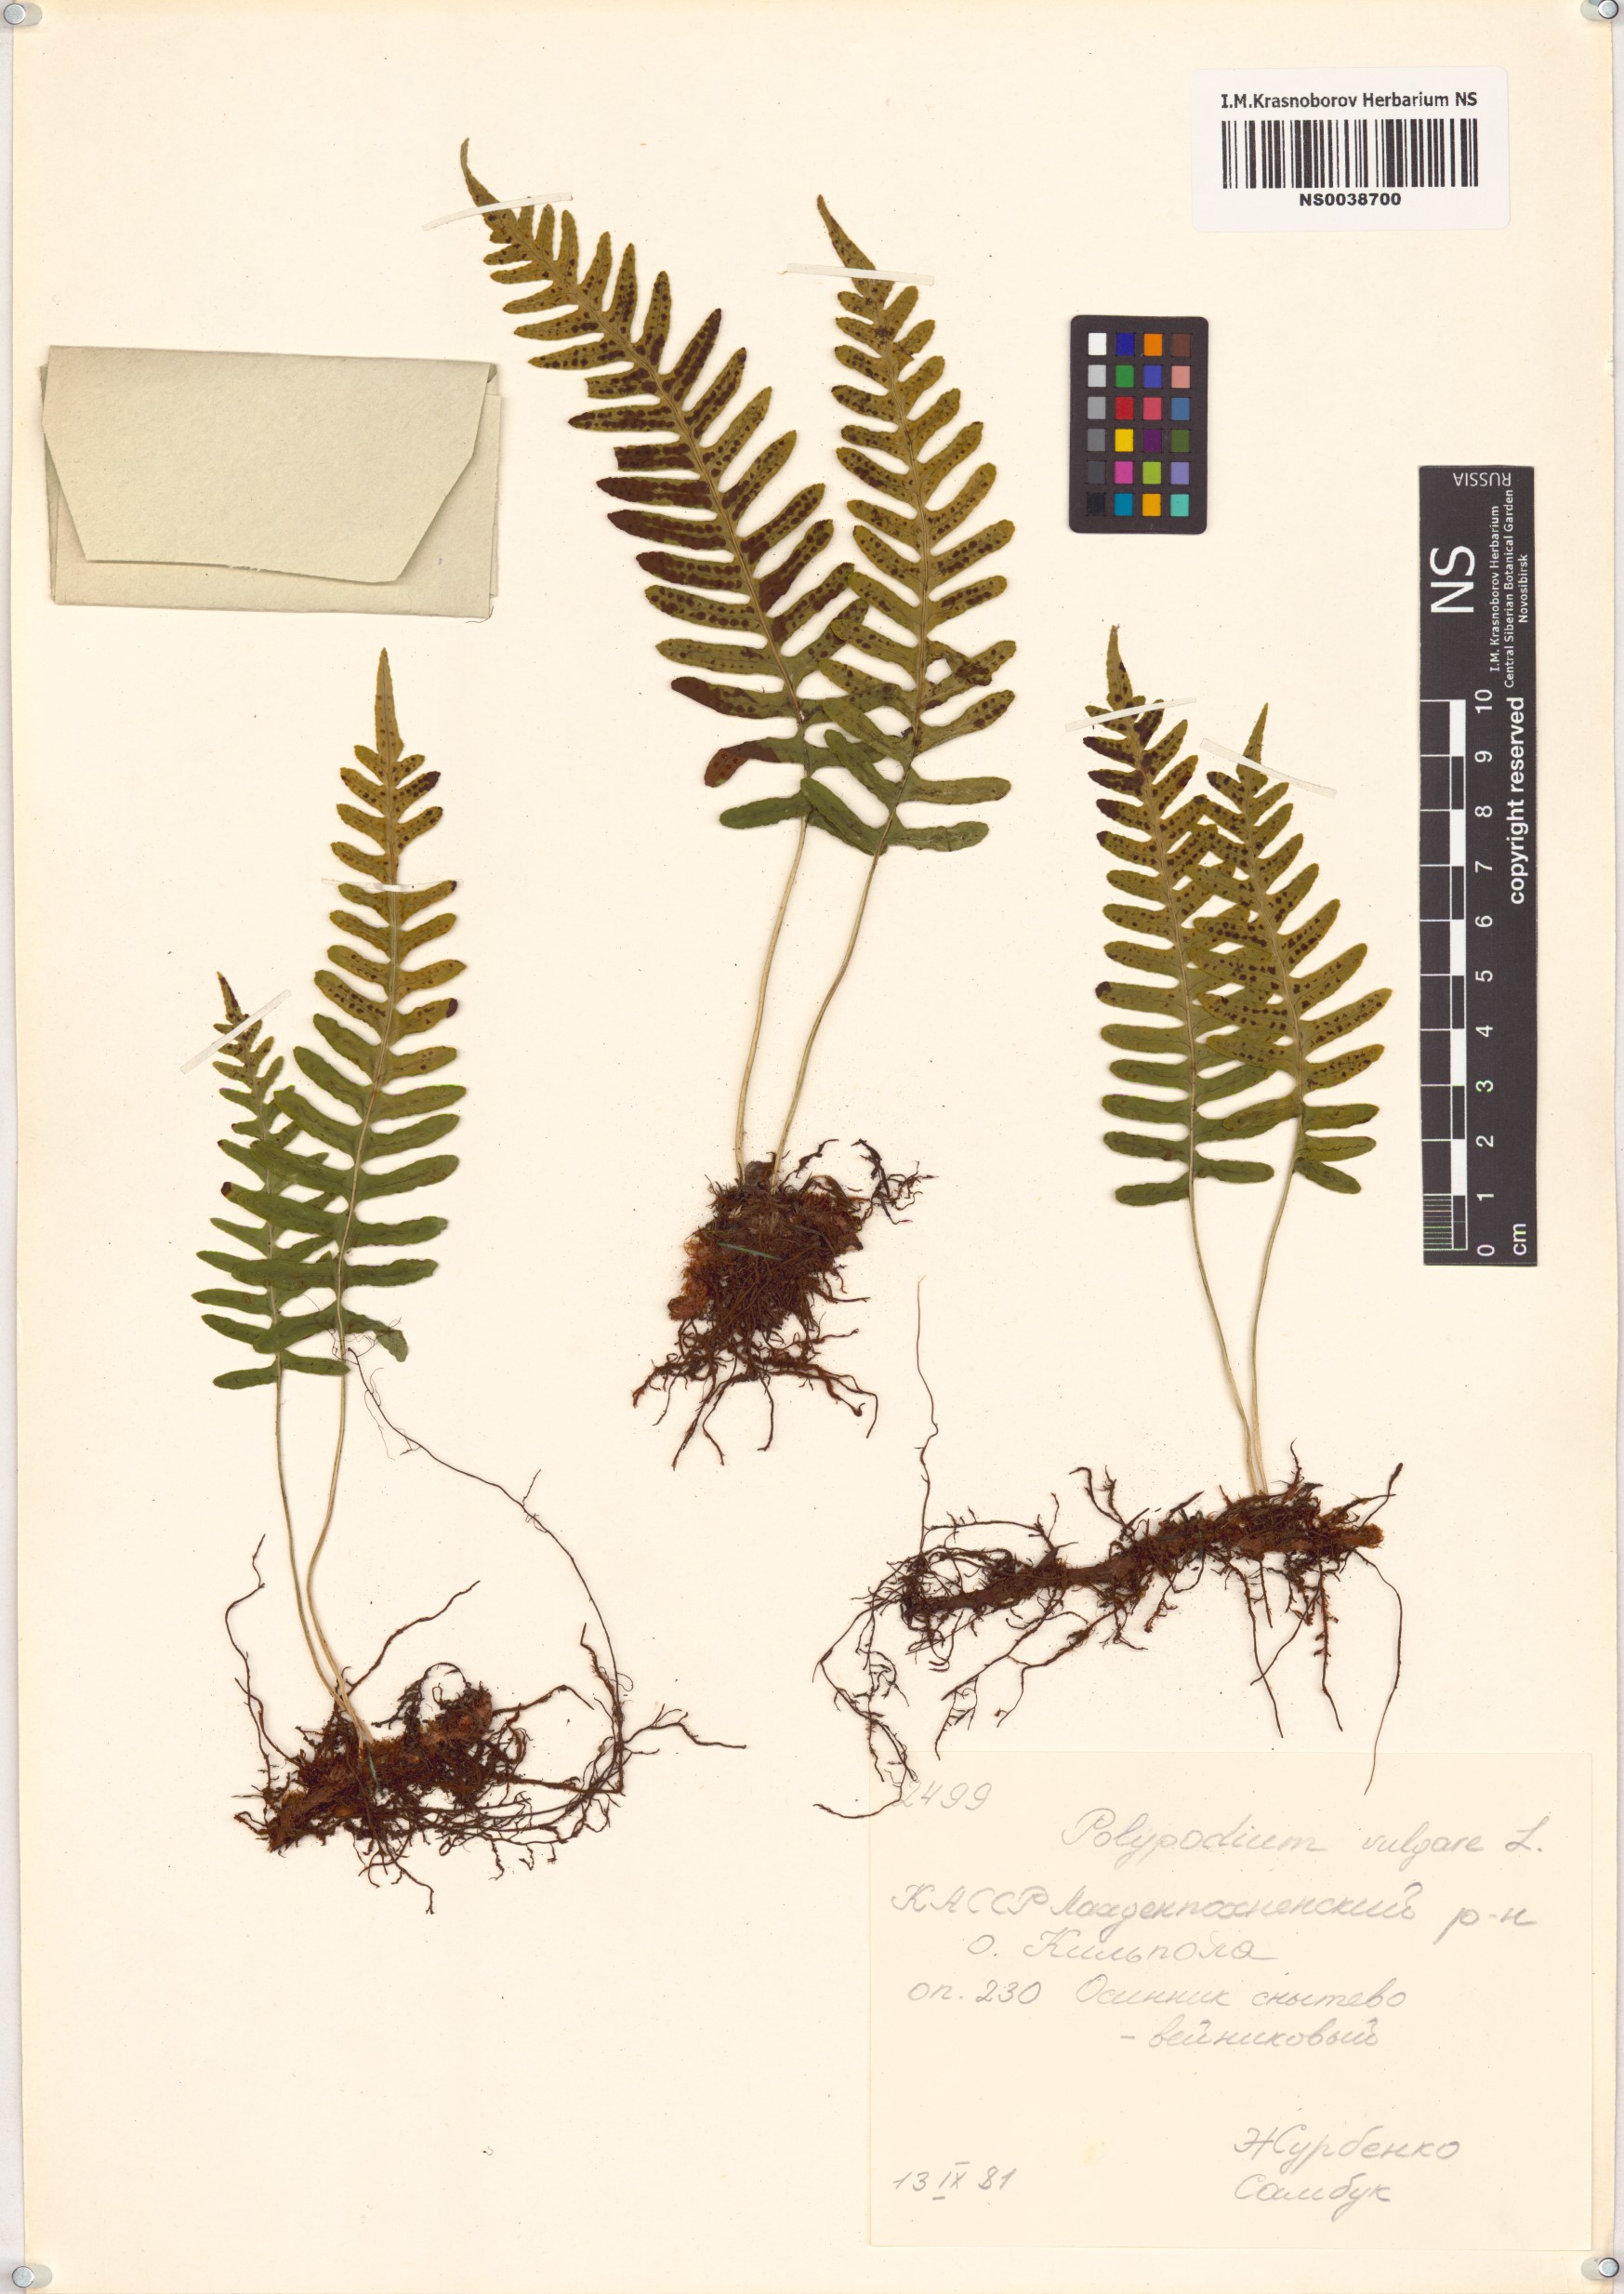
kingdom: Plantae
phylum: Tracheophyta
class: Polypodiopsida
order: Polypodiales
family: Polypodiaceae
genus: Polypodium
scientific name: Polypodium vulgare
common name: Common polypody
